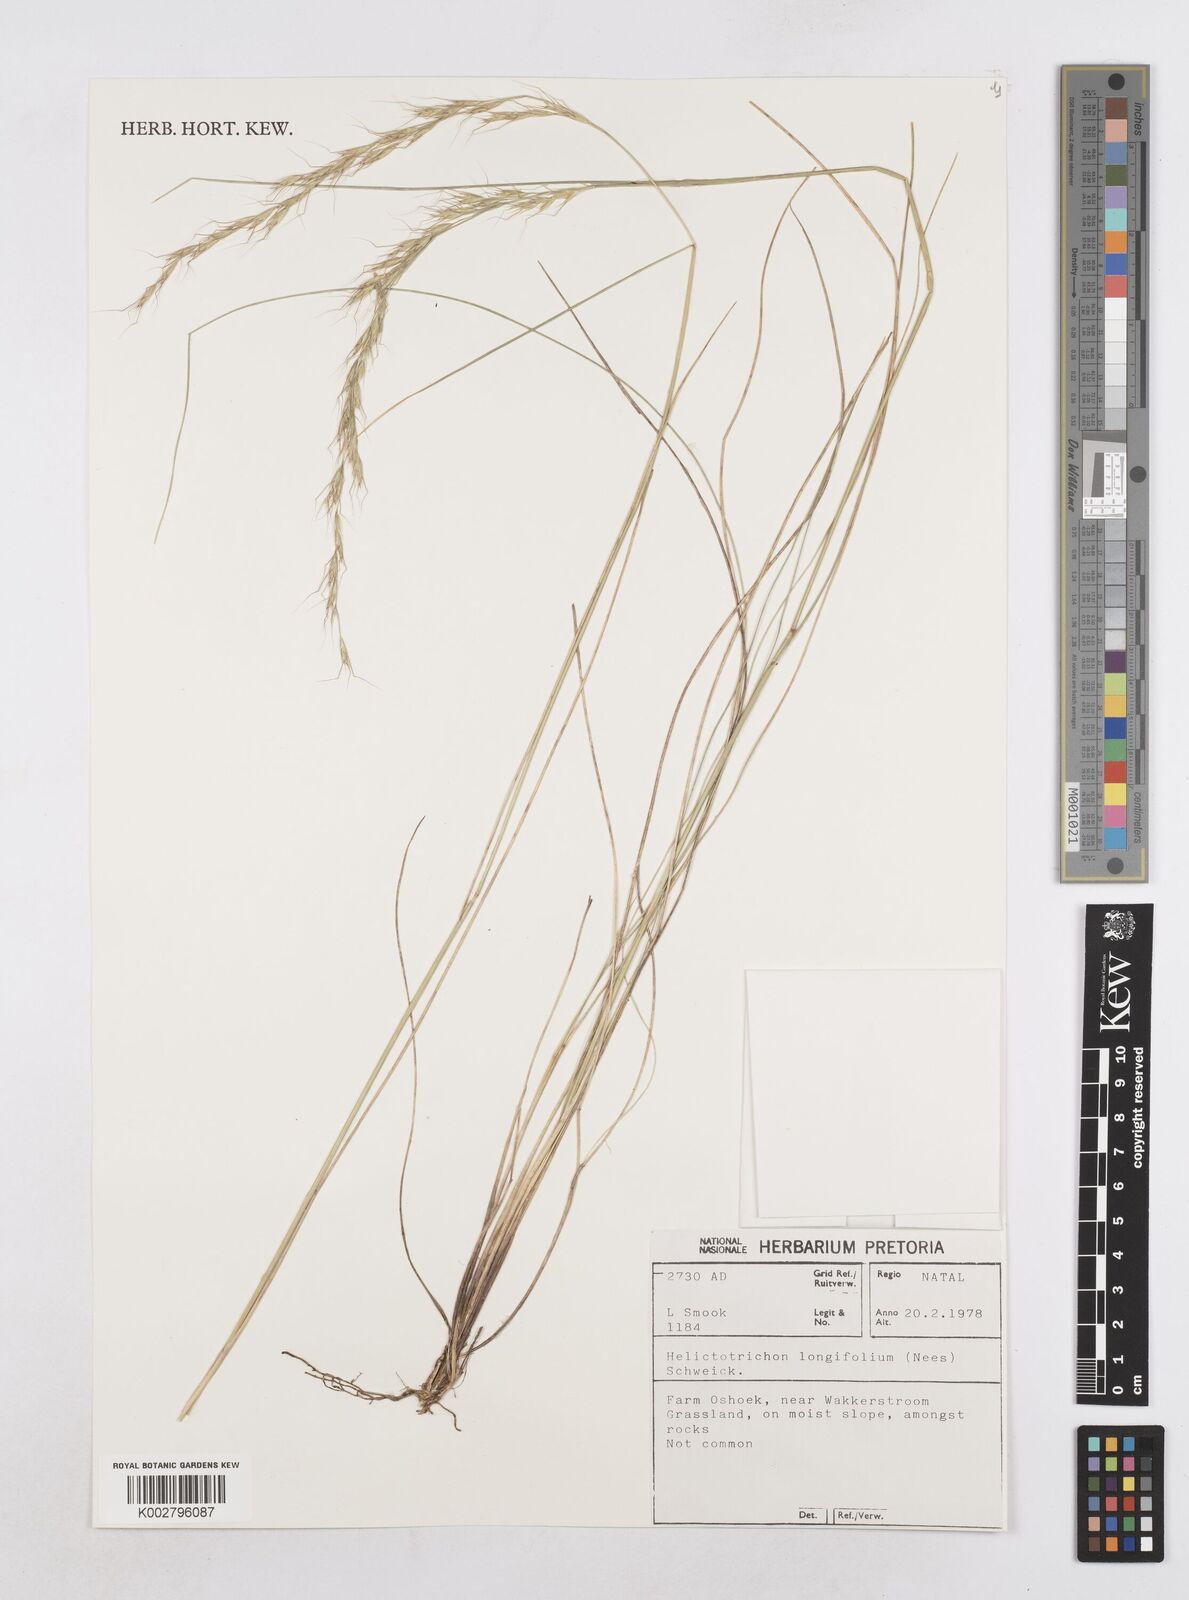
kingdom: Plantae
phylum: Tracheophyta
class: Liliopsida
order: Poales
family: Poaceae
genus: Trisetopsis
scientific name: Trisetopsis longifolia
